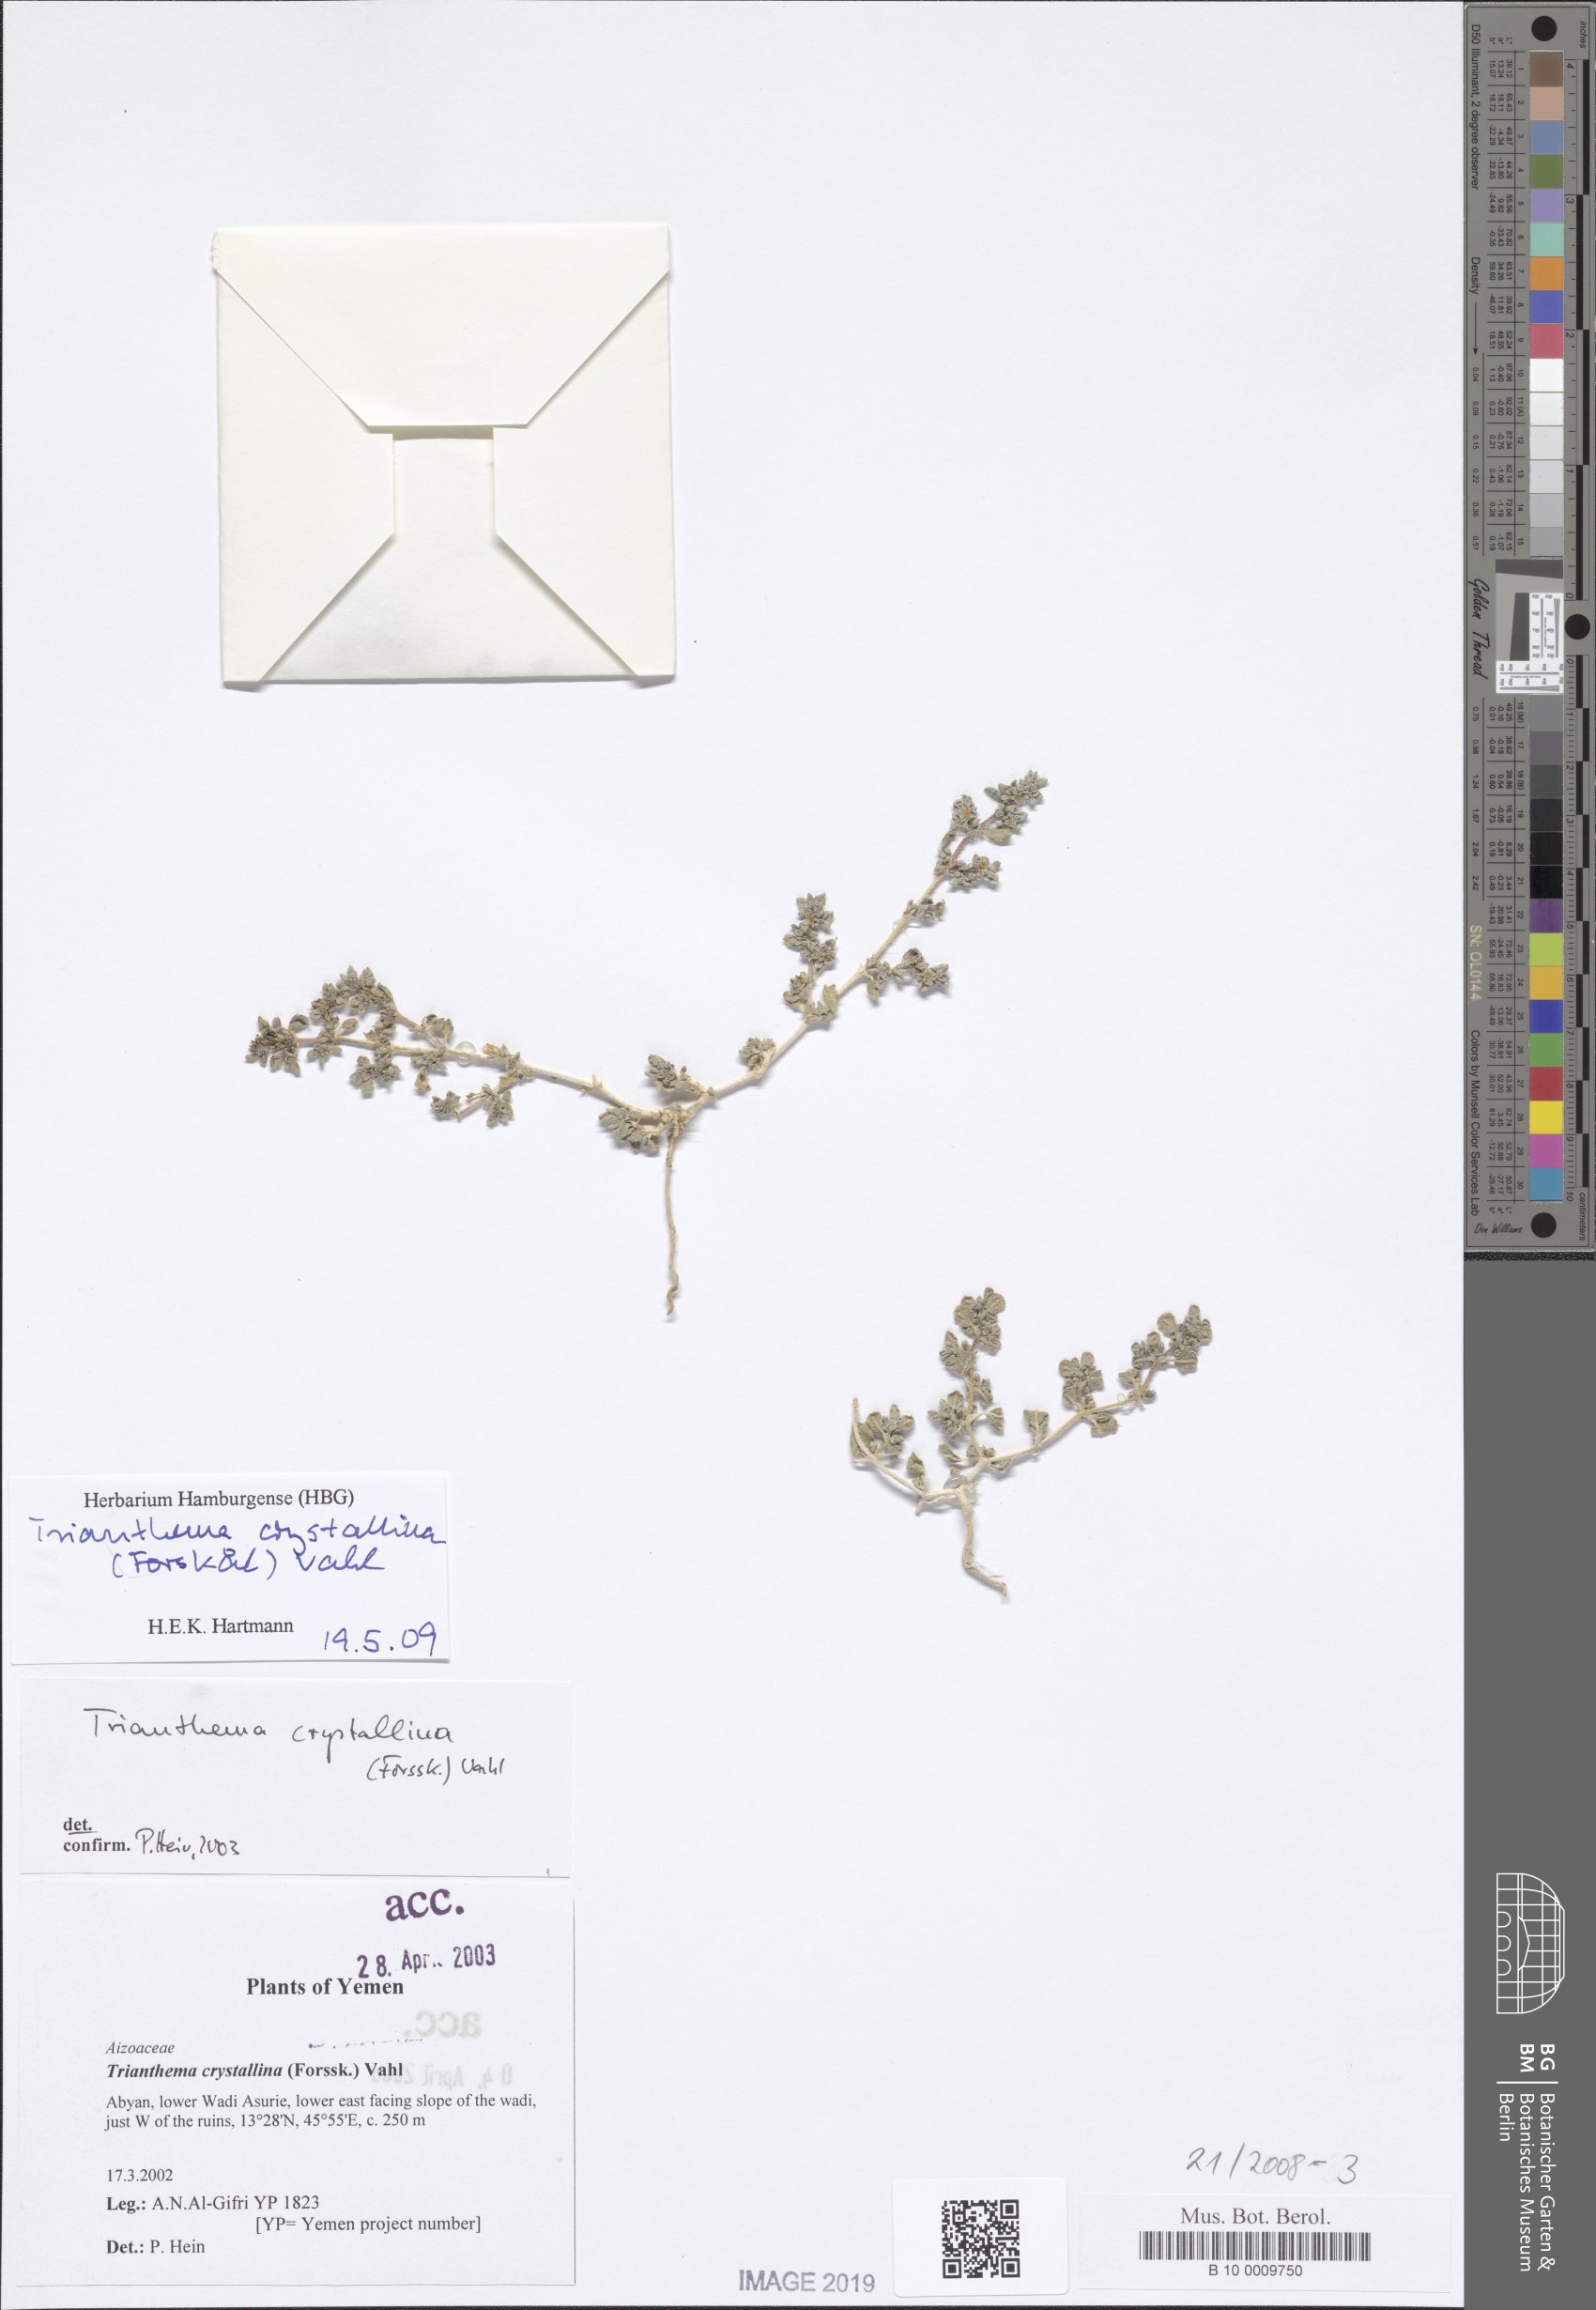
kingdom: Plantae
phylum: Tracheophyta
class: Magnoliopsida
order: Caryophyllales
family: Aizoaceae
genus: Trianthema
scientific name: Trianthema crystallinum
